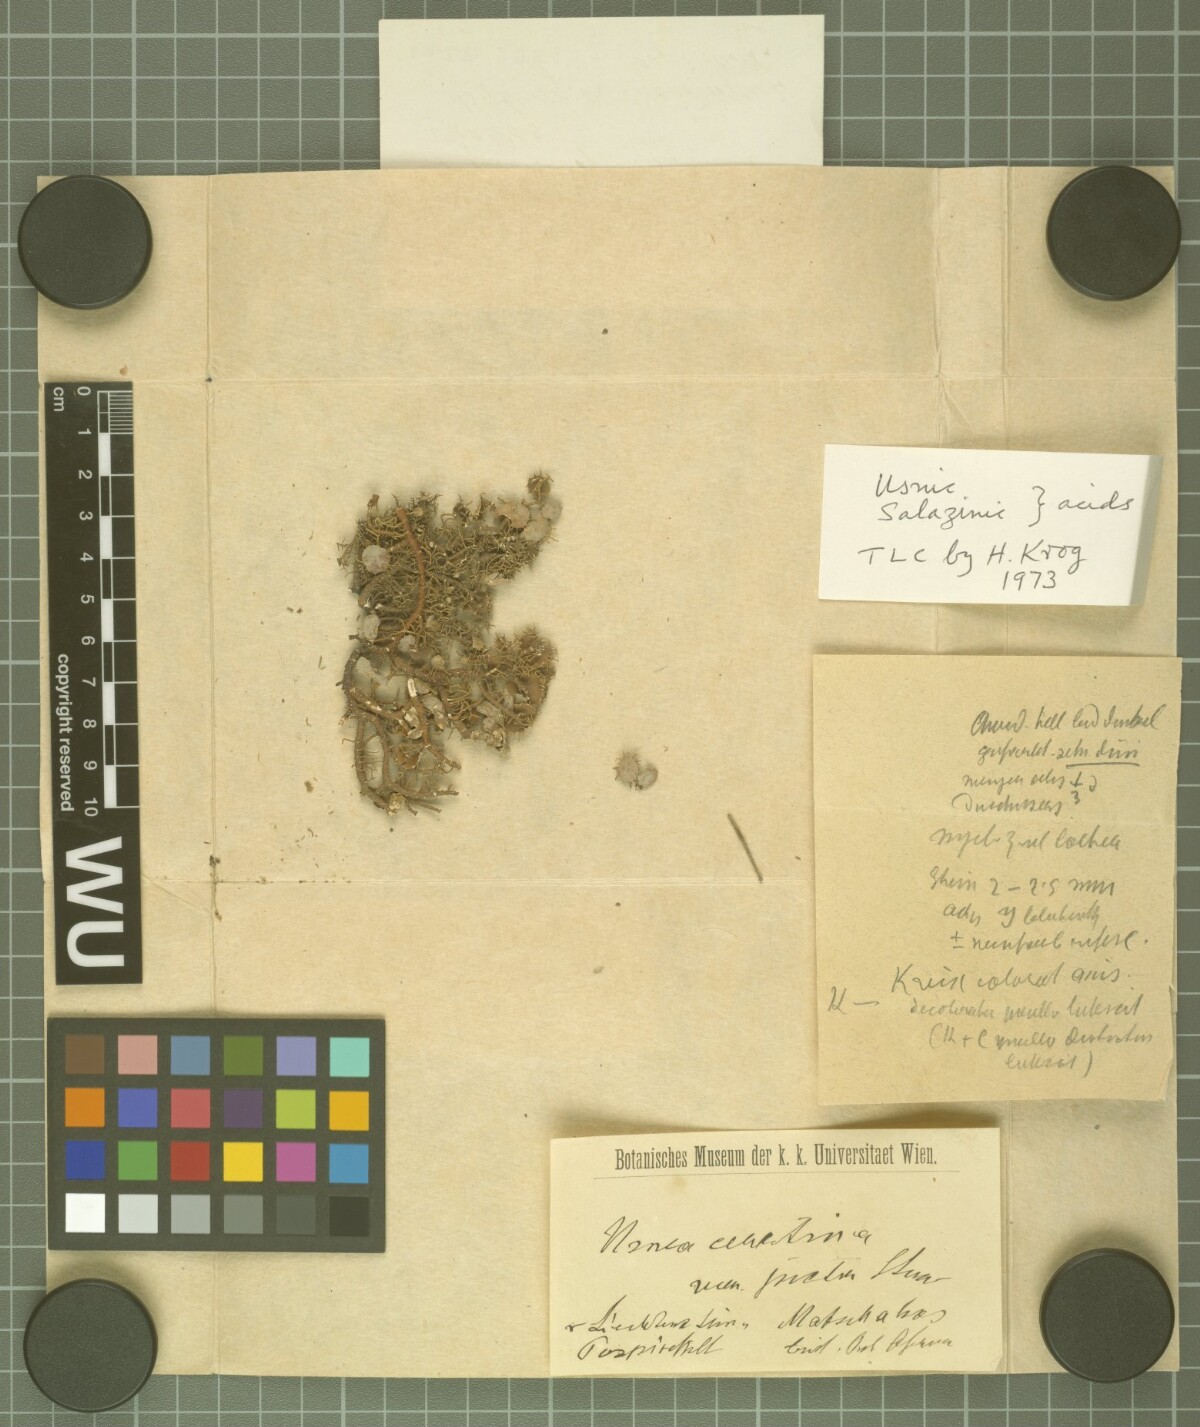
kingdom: Fungi
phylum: Ascomycota
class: Lecanoromycetes
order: Lecanorales
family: Parmeliaceae
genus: Usnea
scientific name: Usnea ceratina
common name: Warty beard lichen
